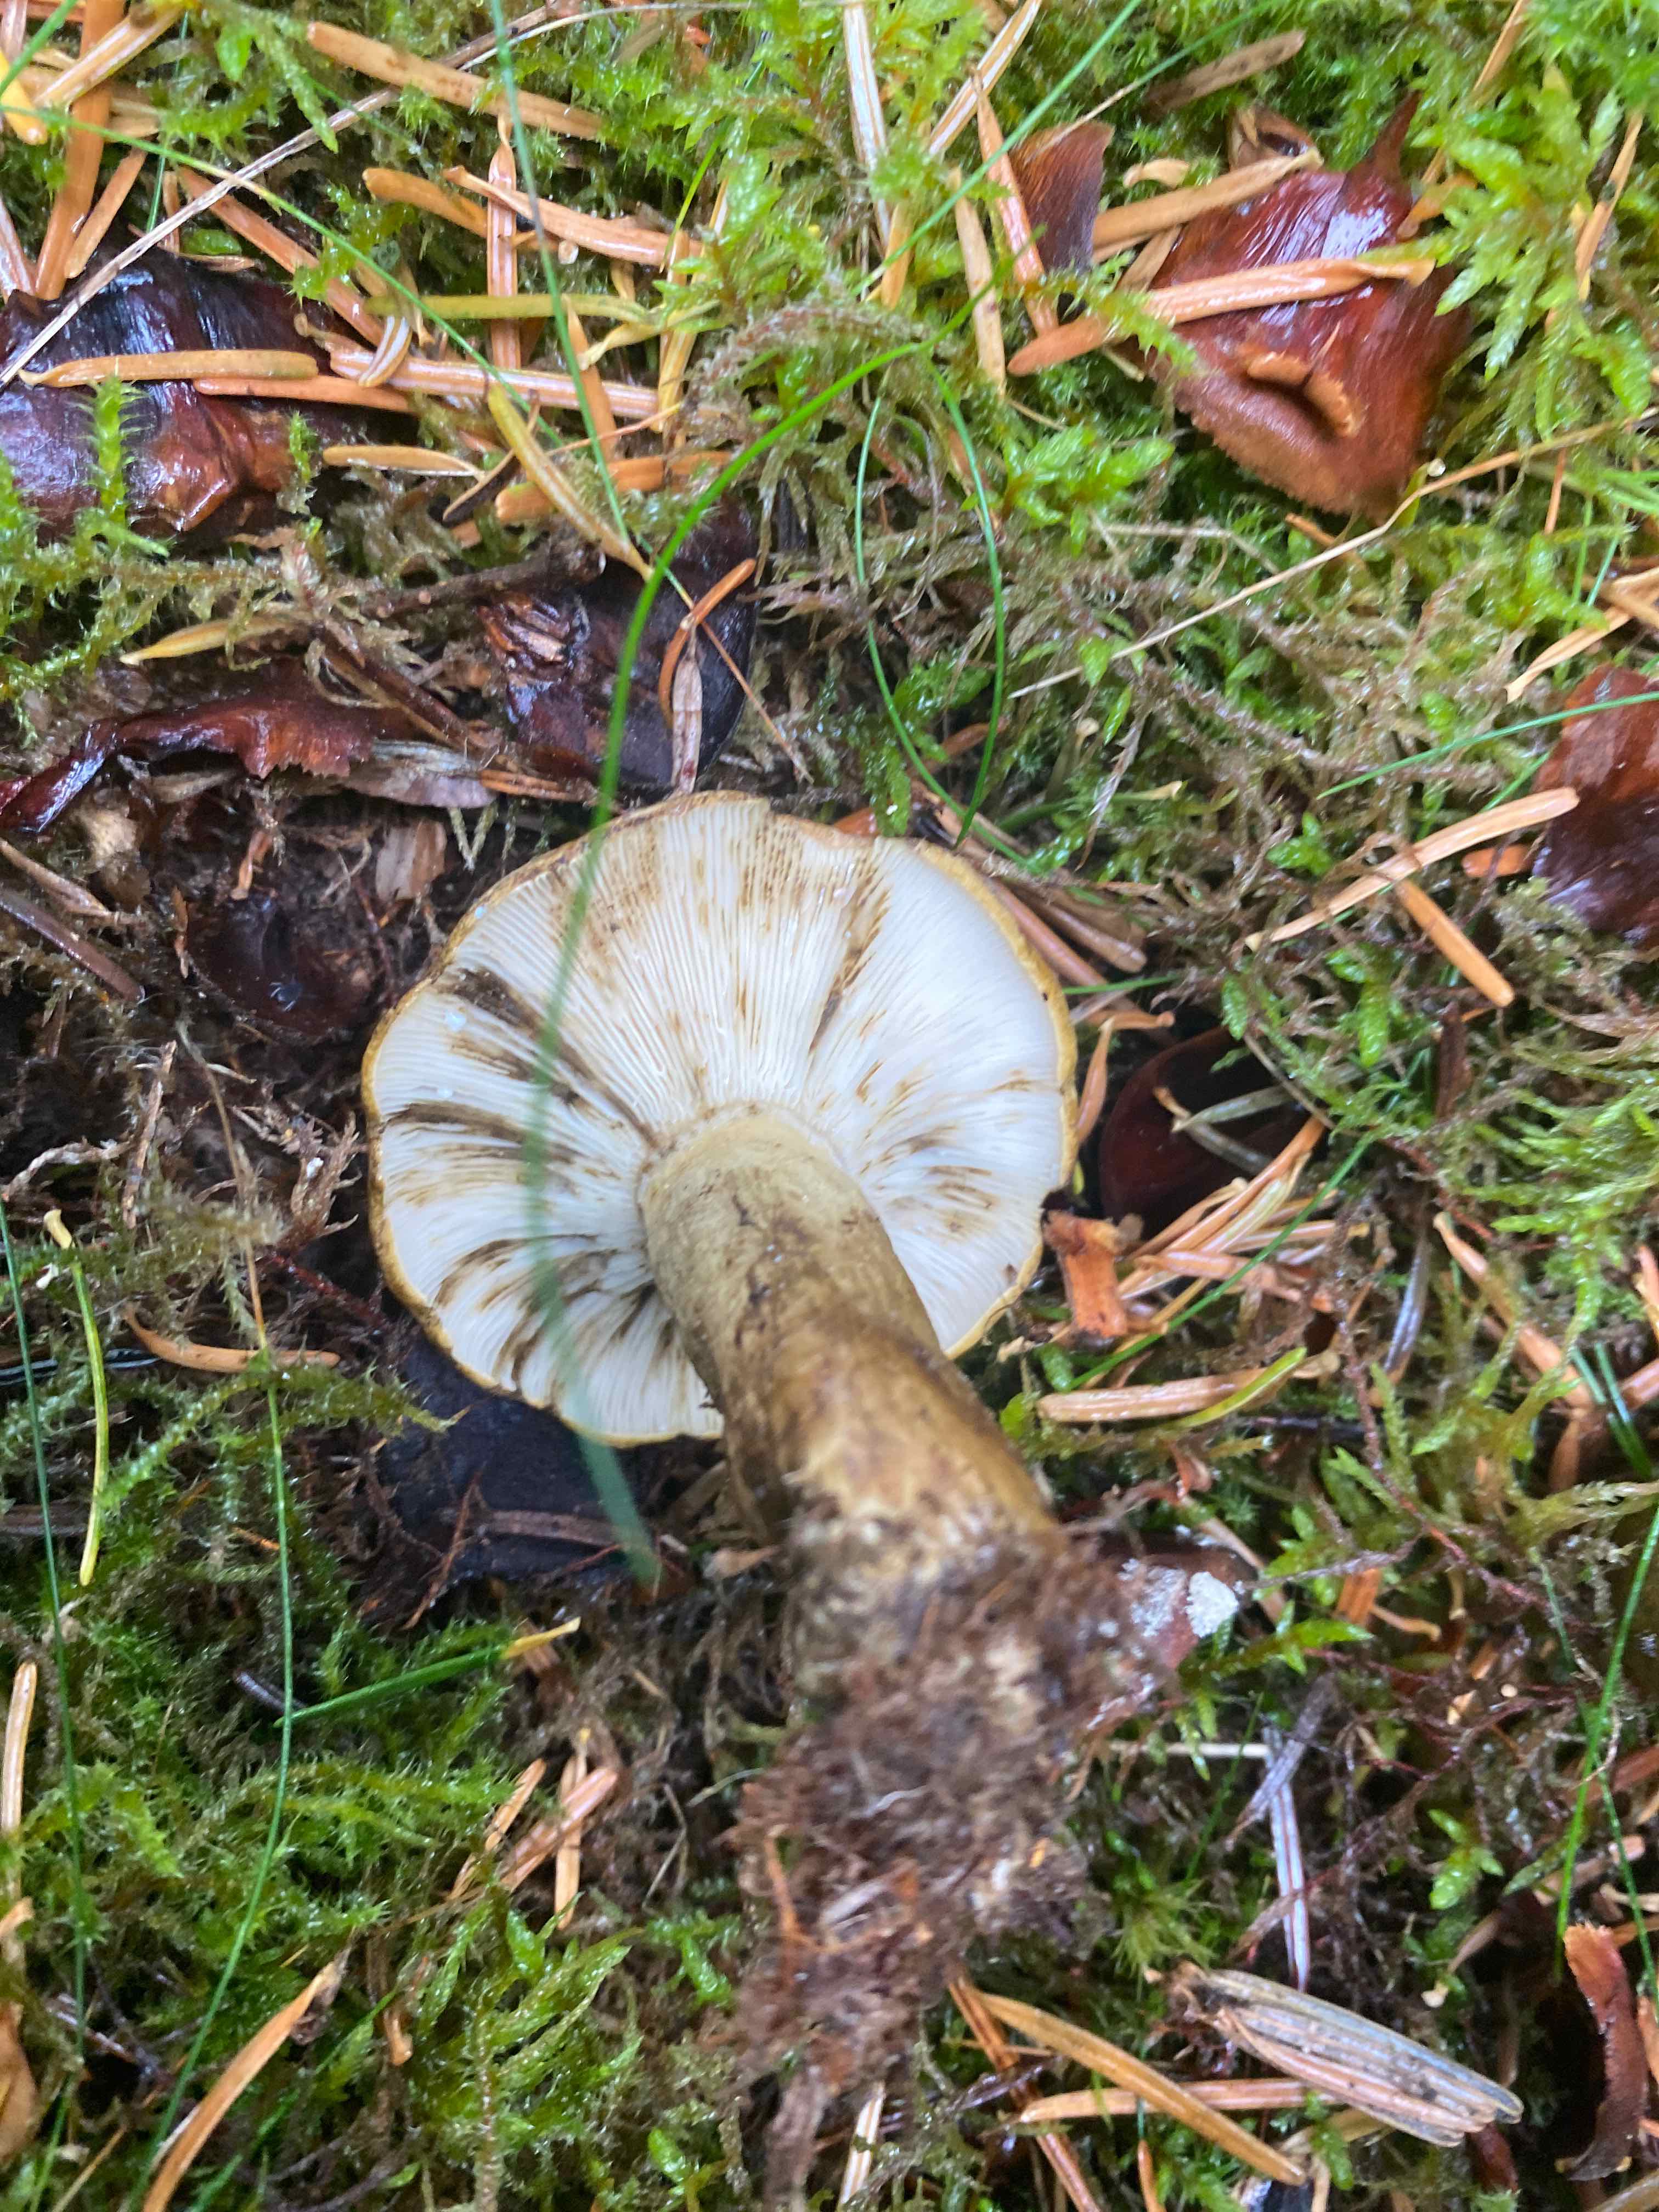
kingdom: Fungi
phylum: Basidiomycota
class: Agaricomycetes
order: Russulales
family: Russulaceae
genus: Lactarius
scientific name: Lactarius necator
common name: manddraber-mælkehat
